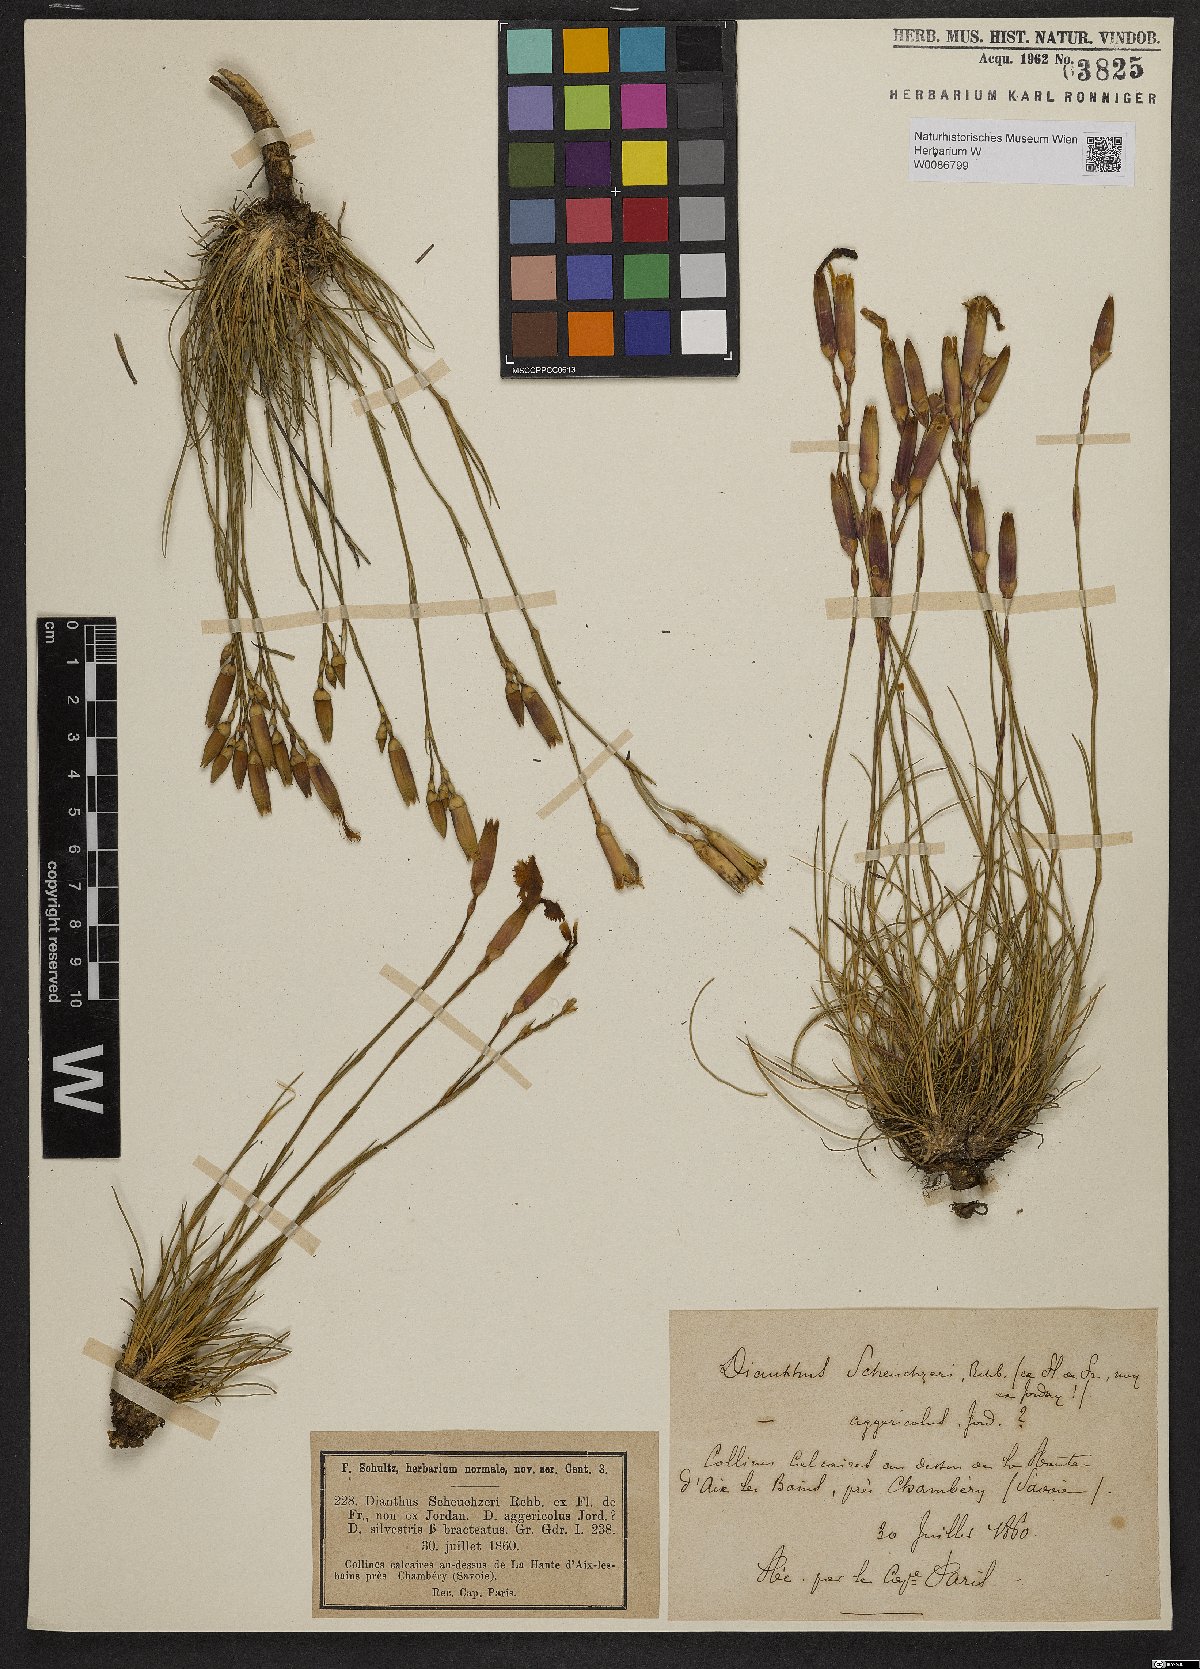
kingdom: Plantae
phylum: Tracheophyta
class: Magnoliopsida
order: Caryophyllales
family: Caryophyllaceae
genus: Dianthus
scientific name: Dianthus sylvestris
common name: Wood pink
